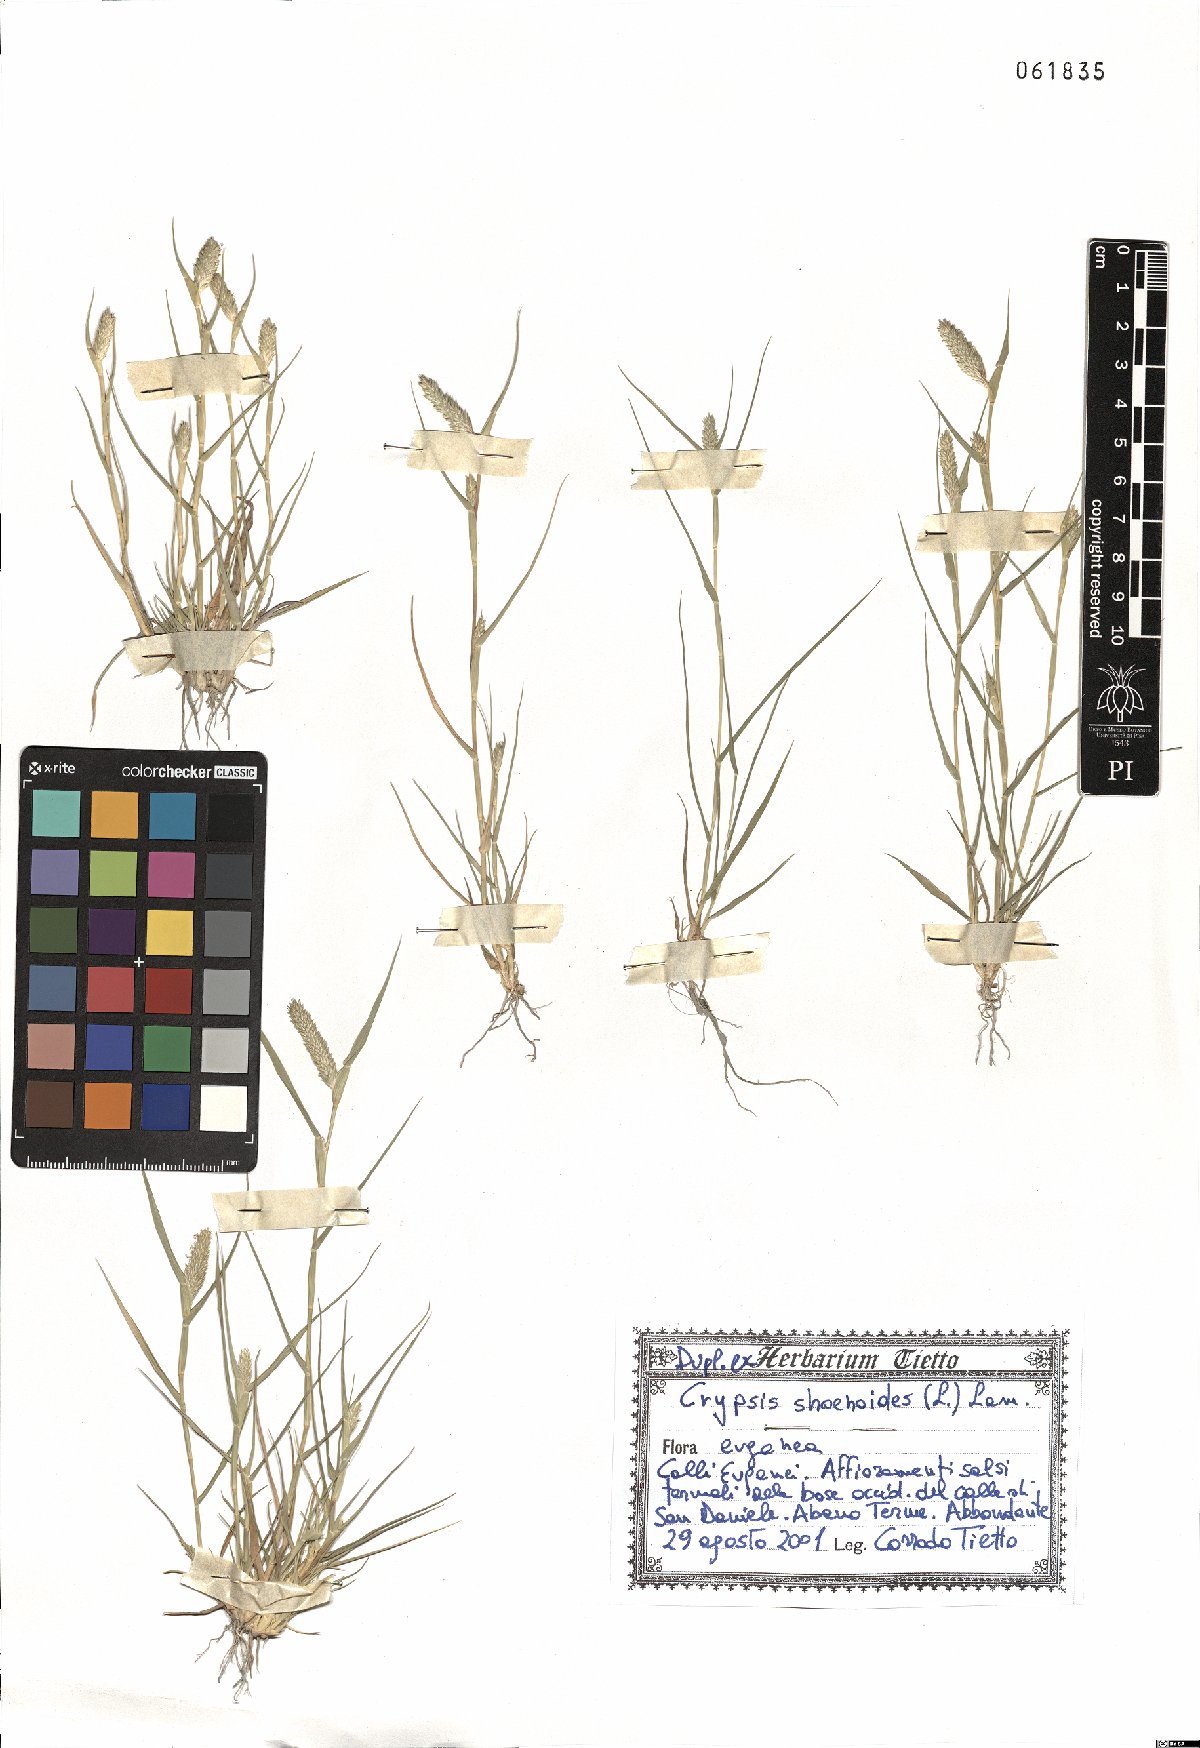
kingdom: Plantae
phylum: Tracheophyta
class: Liliopsida
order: Poales
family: Poaceae
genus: Sporobolus
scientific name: Sporobolus schoenoides
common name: Rush-like timothy
